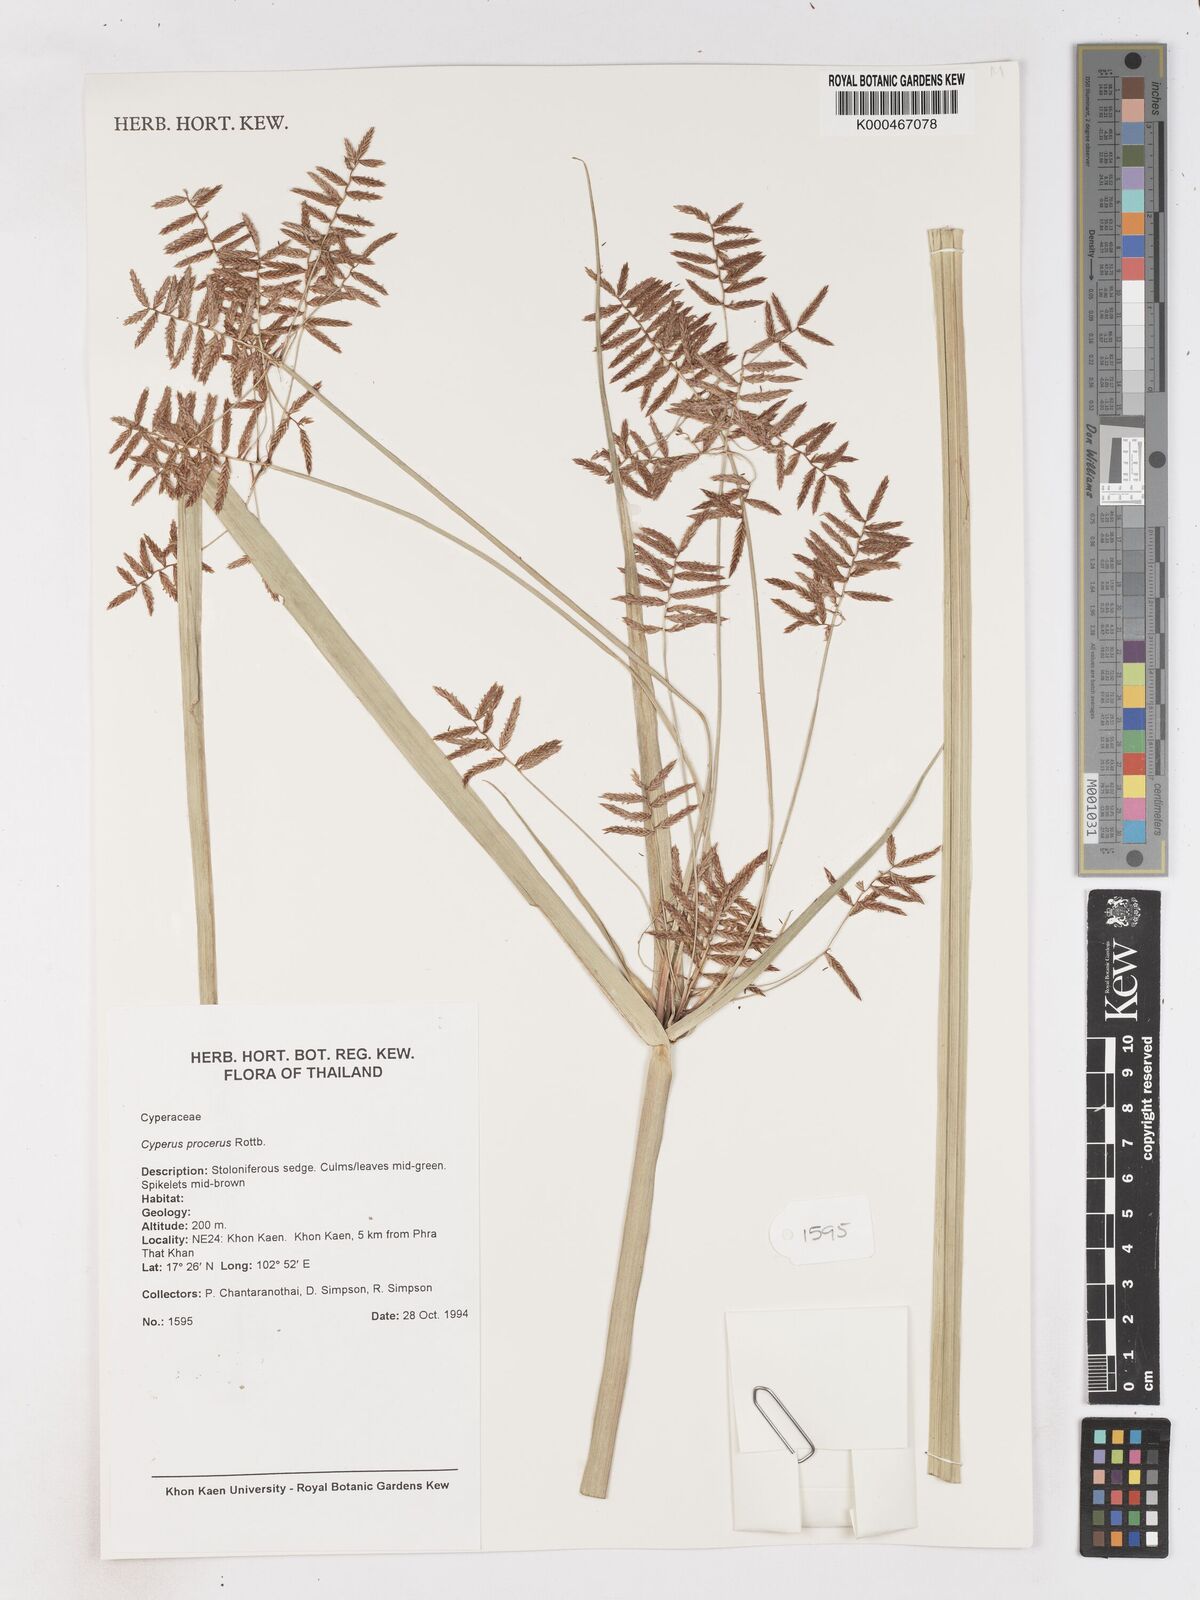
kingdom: Plantae
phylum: Tracheophyta
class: Liliopsida
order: Poales
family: Cyperaceae
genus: Cyperus
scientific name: Cyperus procerus
